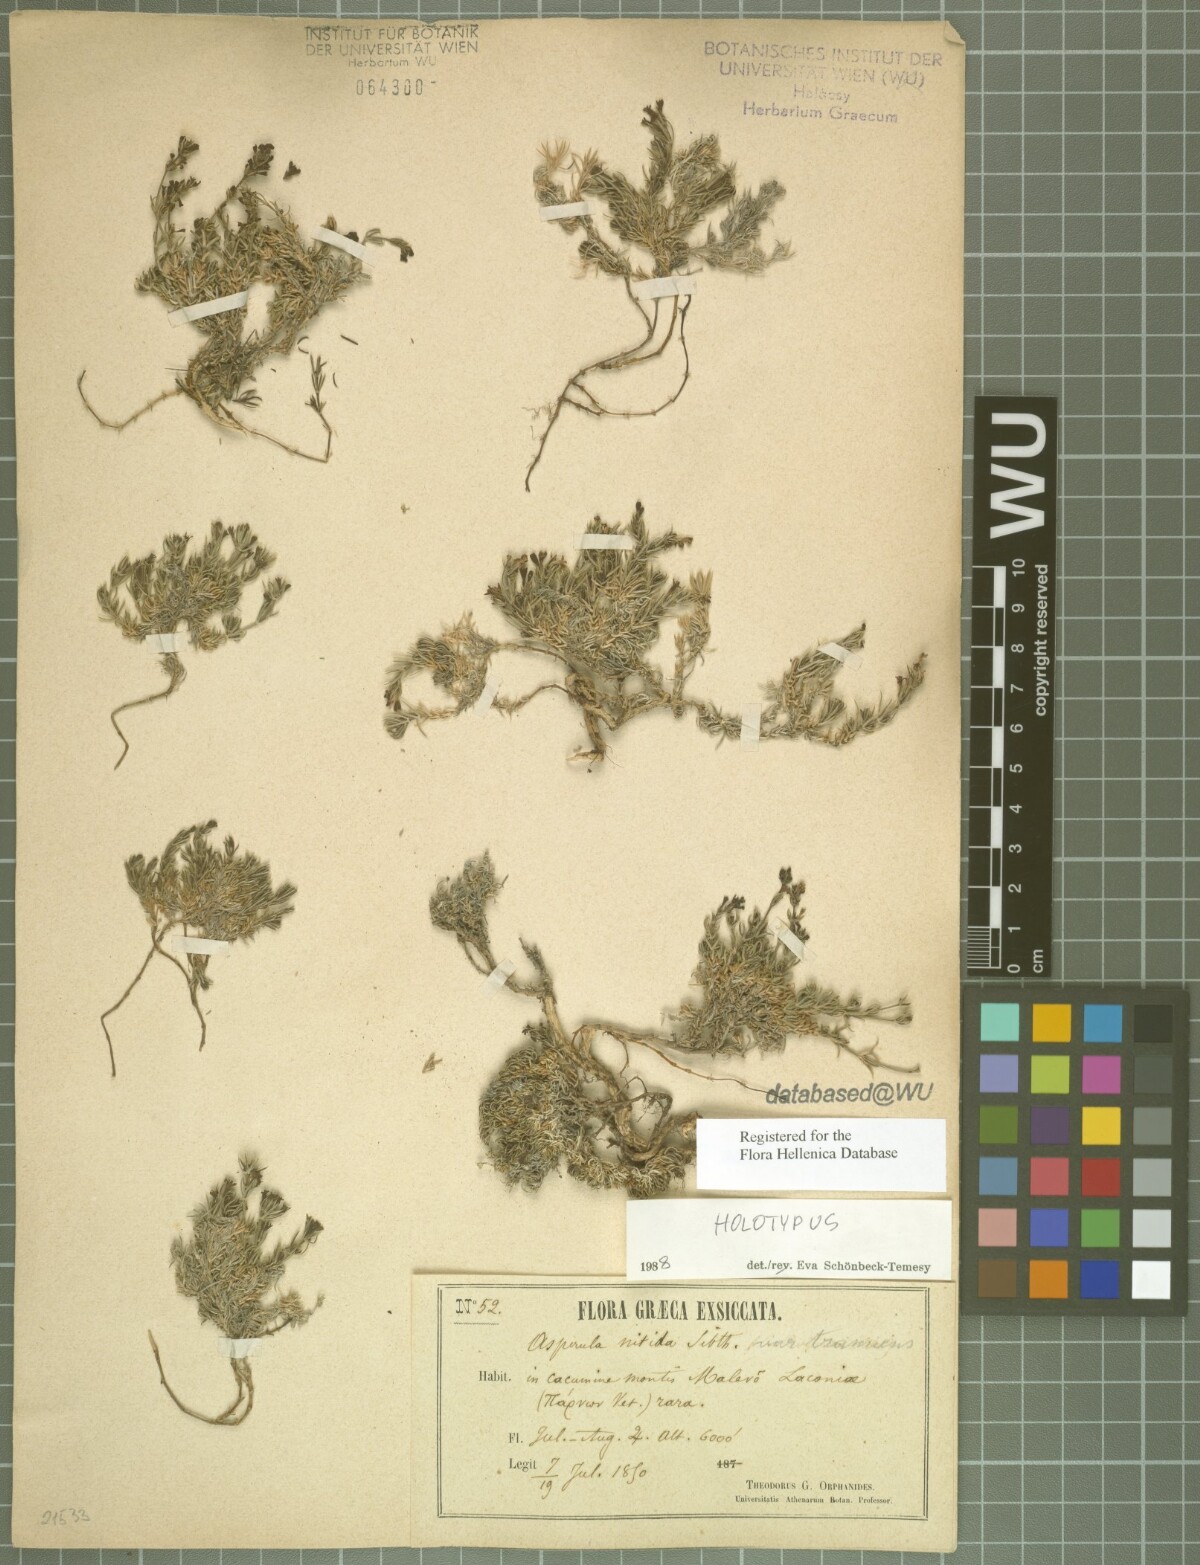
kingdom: Plantae
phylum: Tracheophyta
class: Magnoliopsida
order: Gentianales
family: Rubiaceae
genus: Cynanchica
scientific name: Cynanchica boissieri
